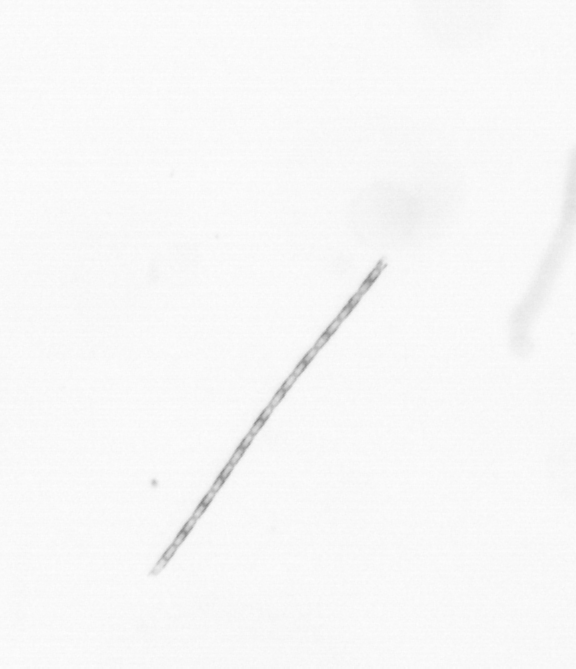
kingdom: Chromista
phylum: Ochrophyta
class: Bacillariophyceae
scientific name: Bacillariophyceae
